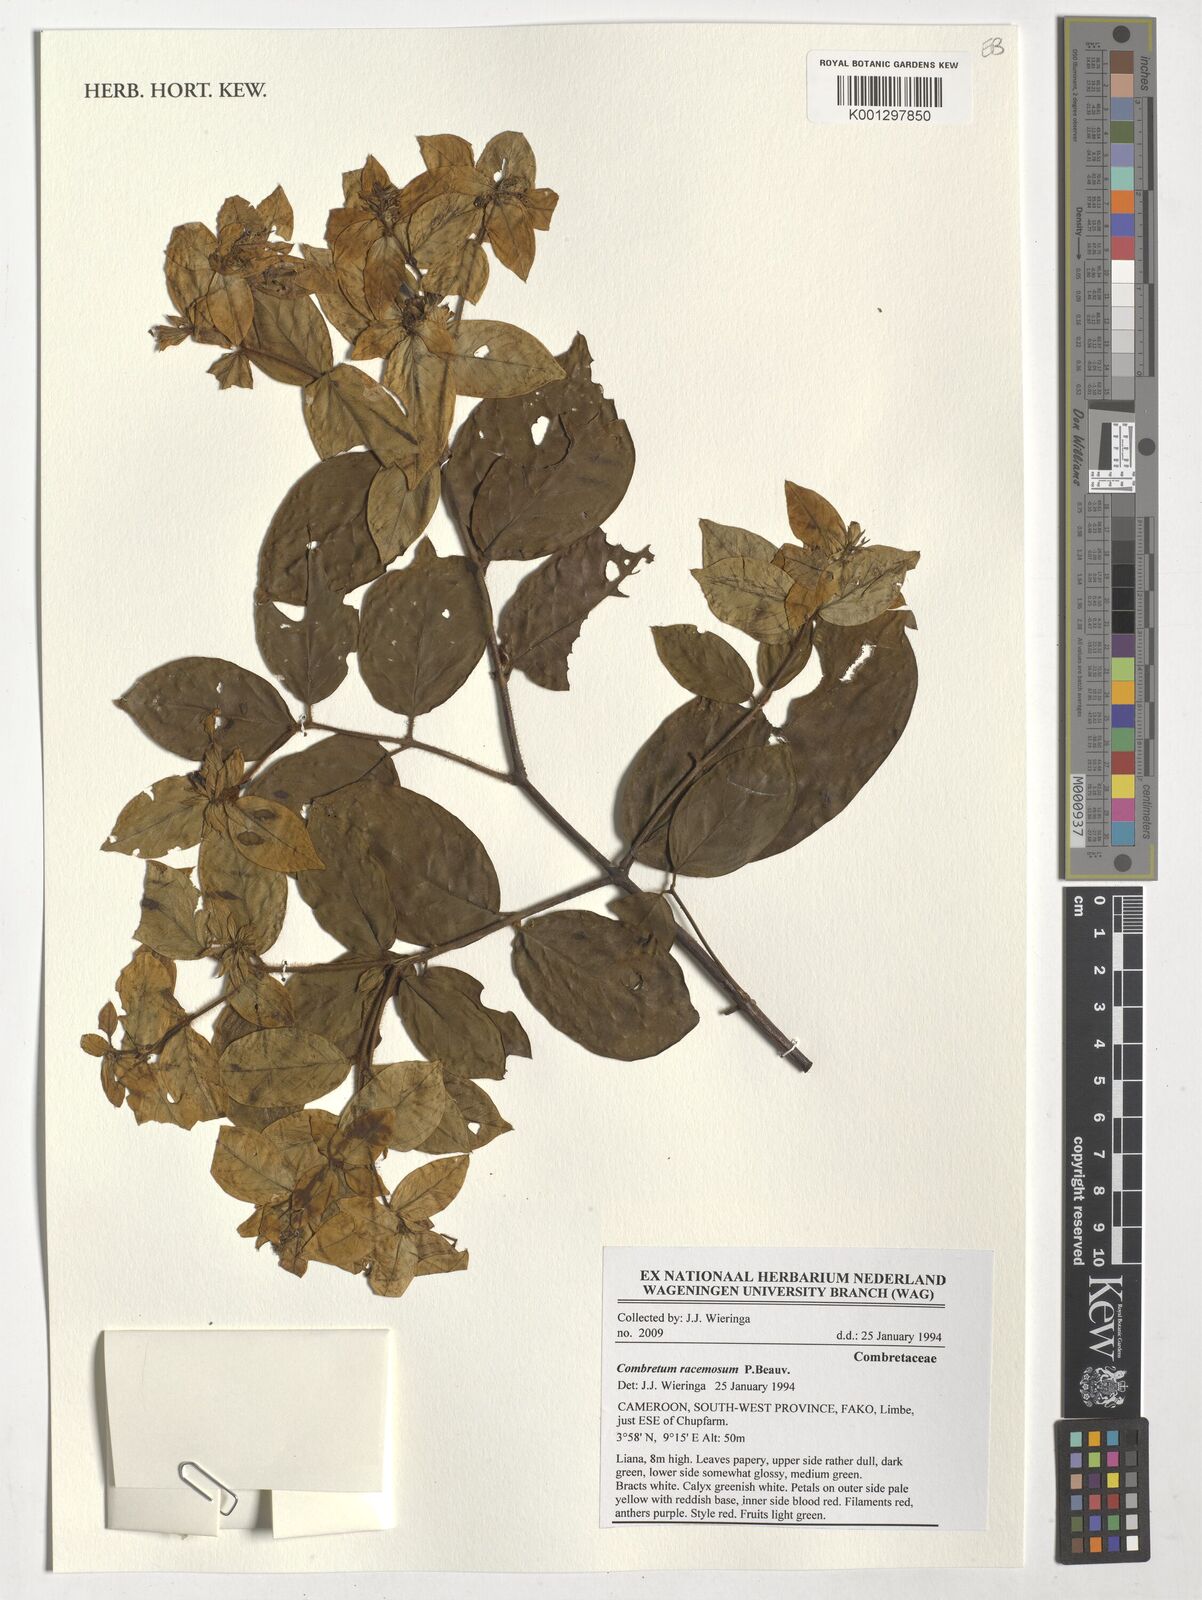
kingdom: Plantae
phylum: Tracheophyta
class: Magnoliopsida
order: Myrtales
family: Combretaceae
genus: Combretum
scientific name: Combretum racemosum
